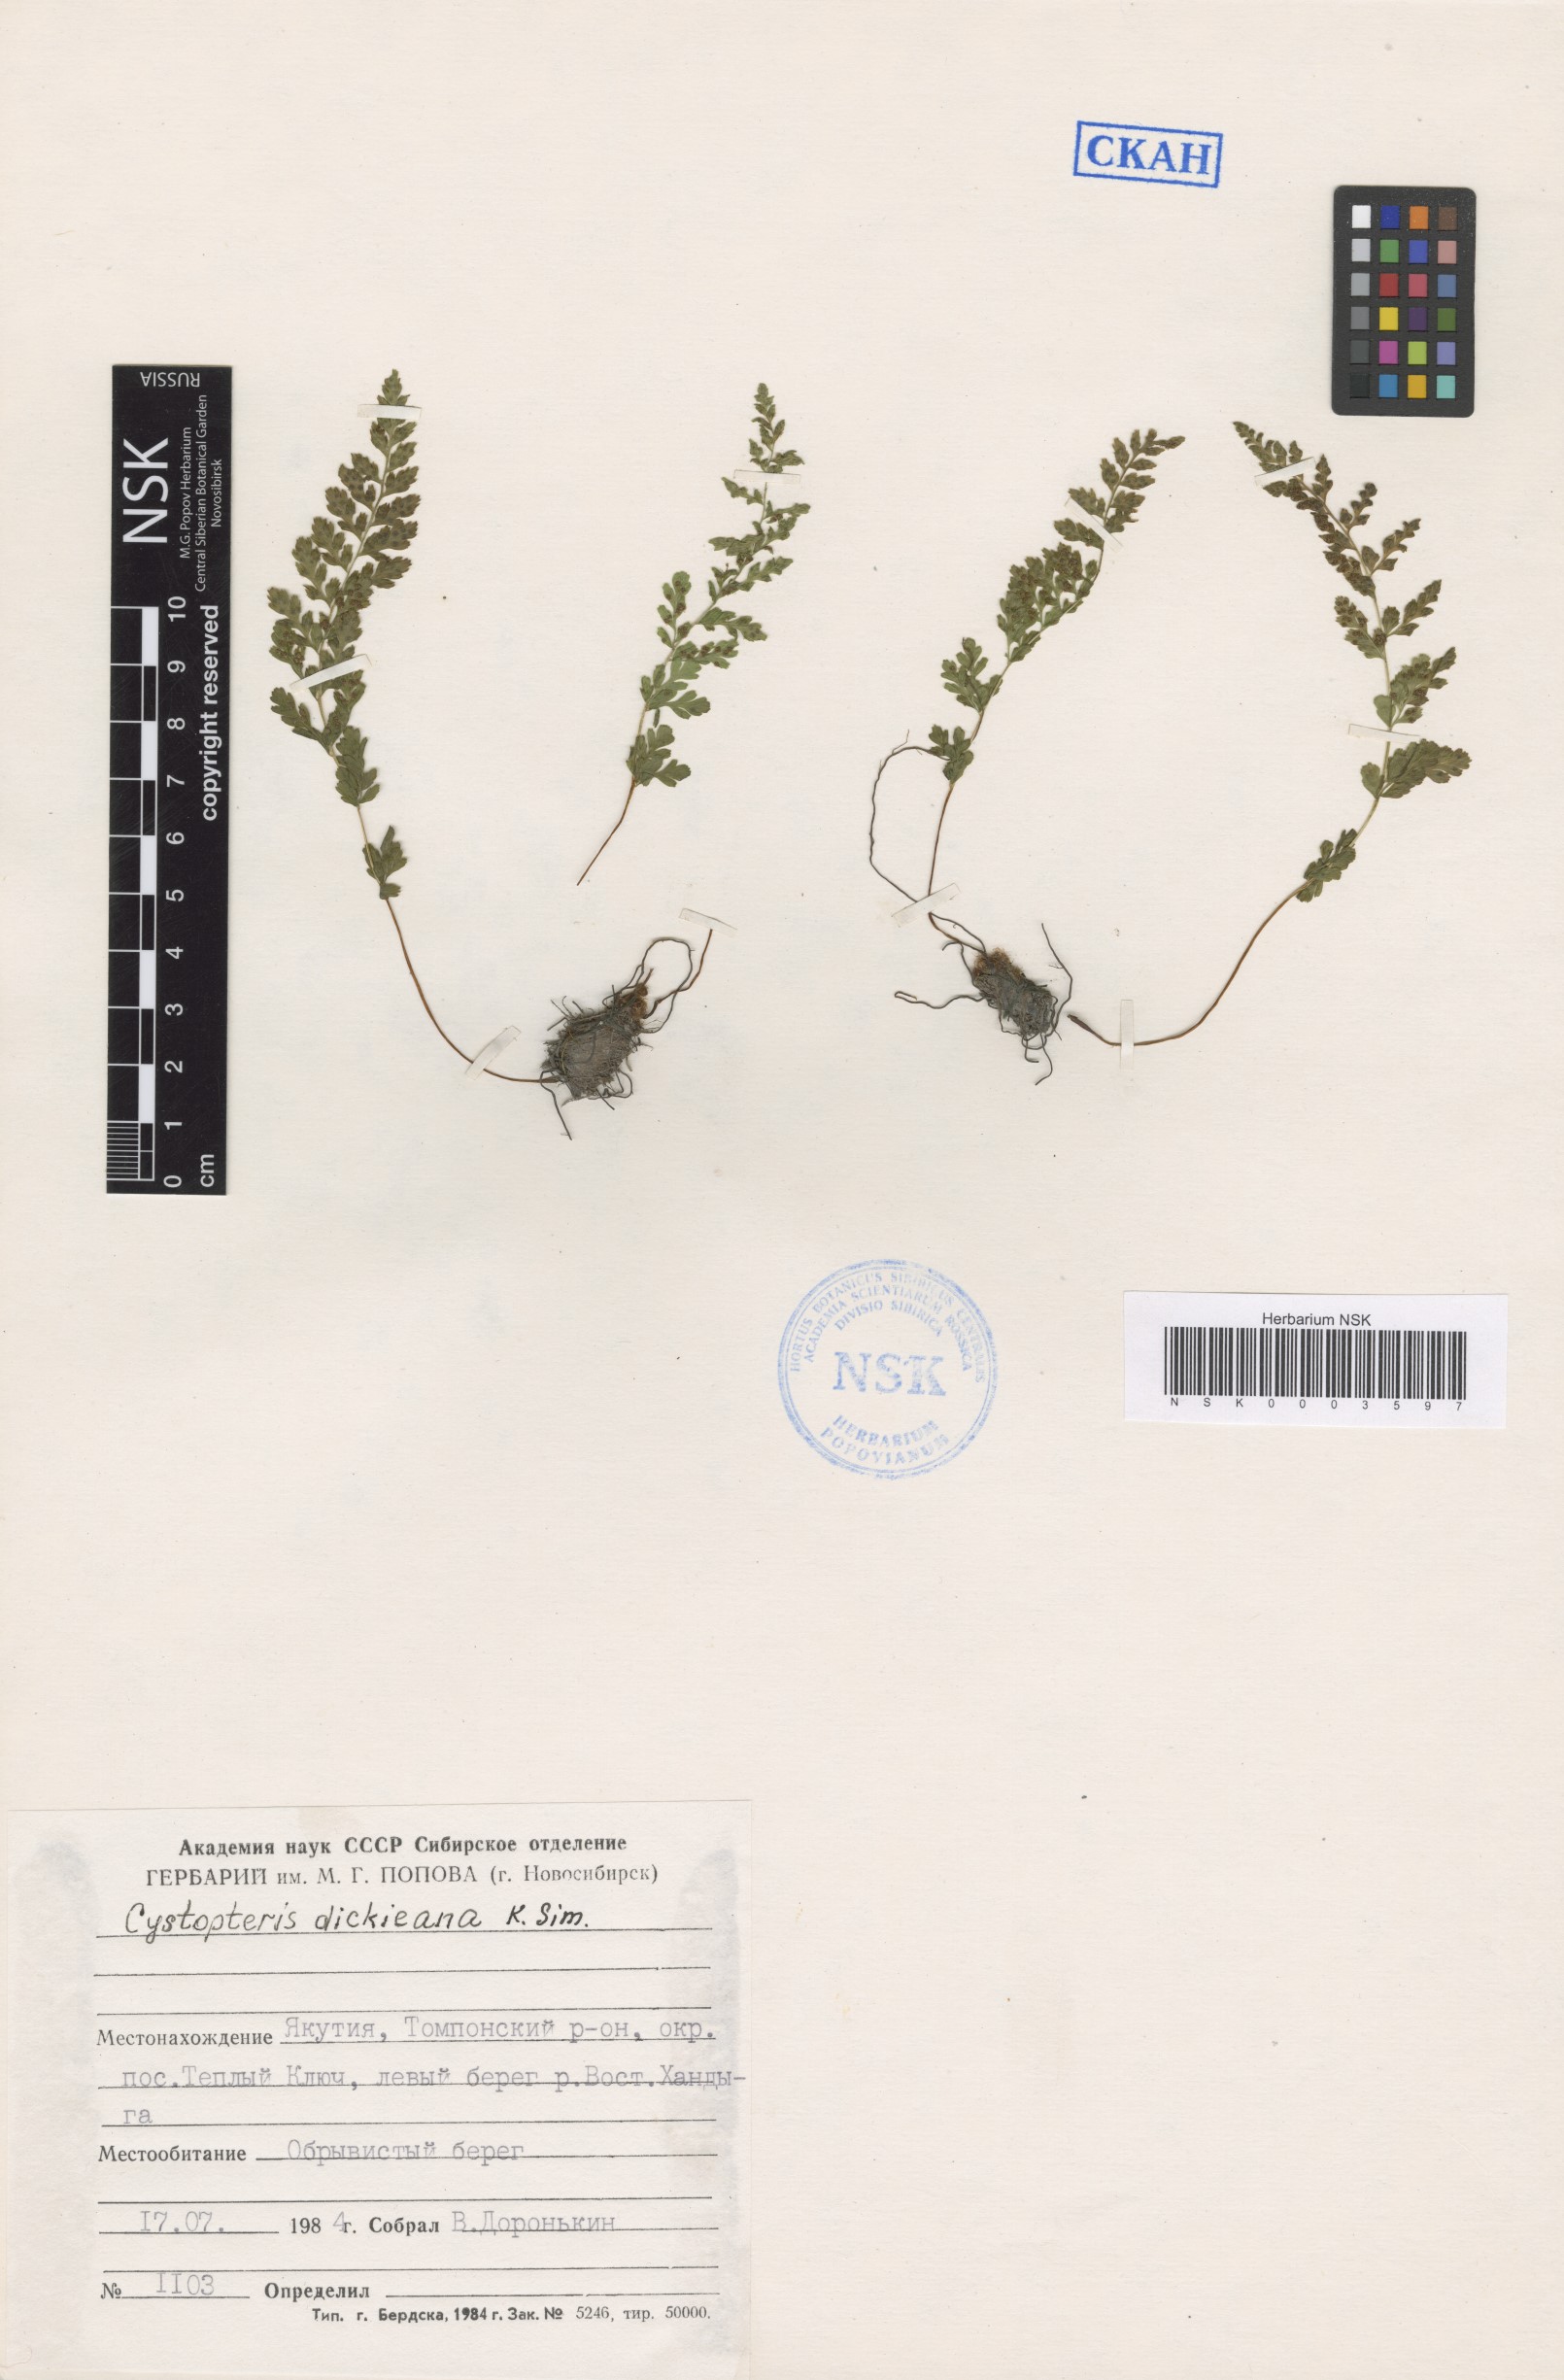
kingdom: Plantae
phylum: Tracheophyta
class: Polypodiopsida
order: Polypodiales
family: Cystopteridaceae
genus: Cystopteris
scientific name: Cystopteris dickieana
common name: Dickie's bladder-fern
